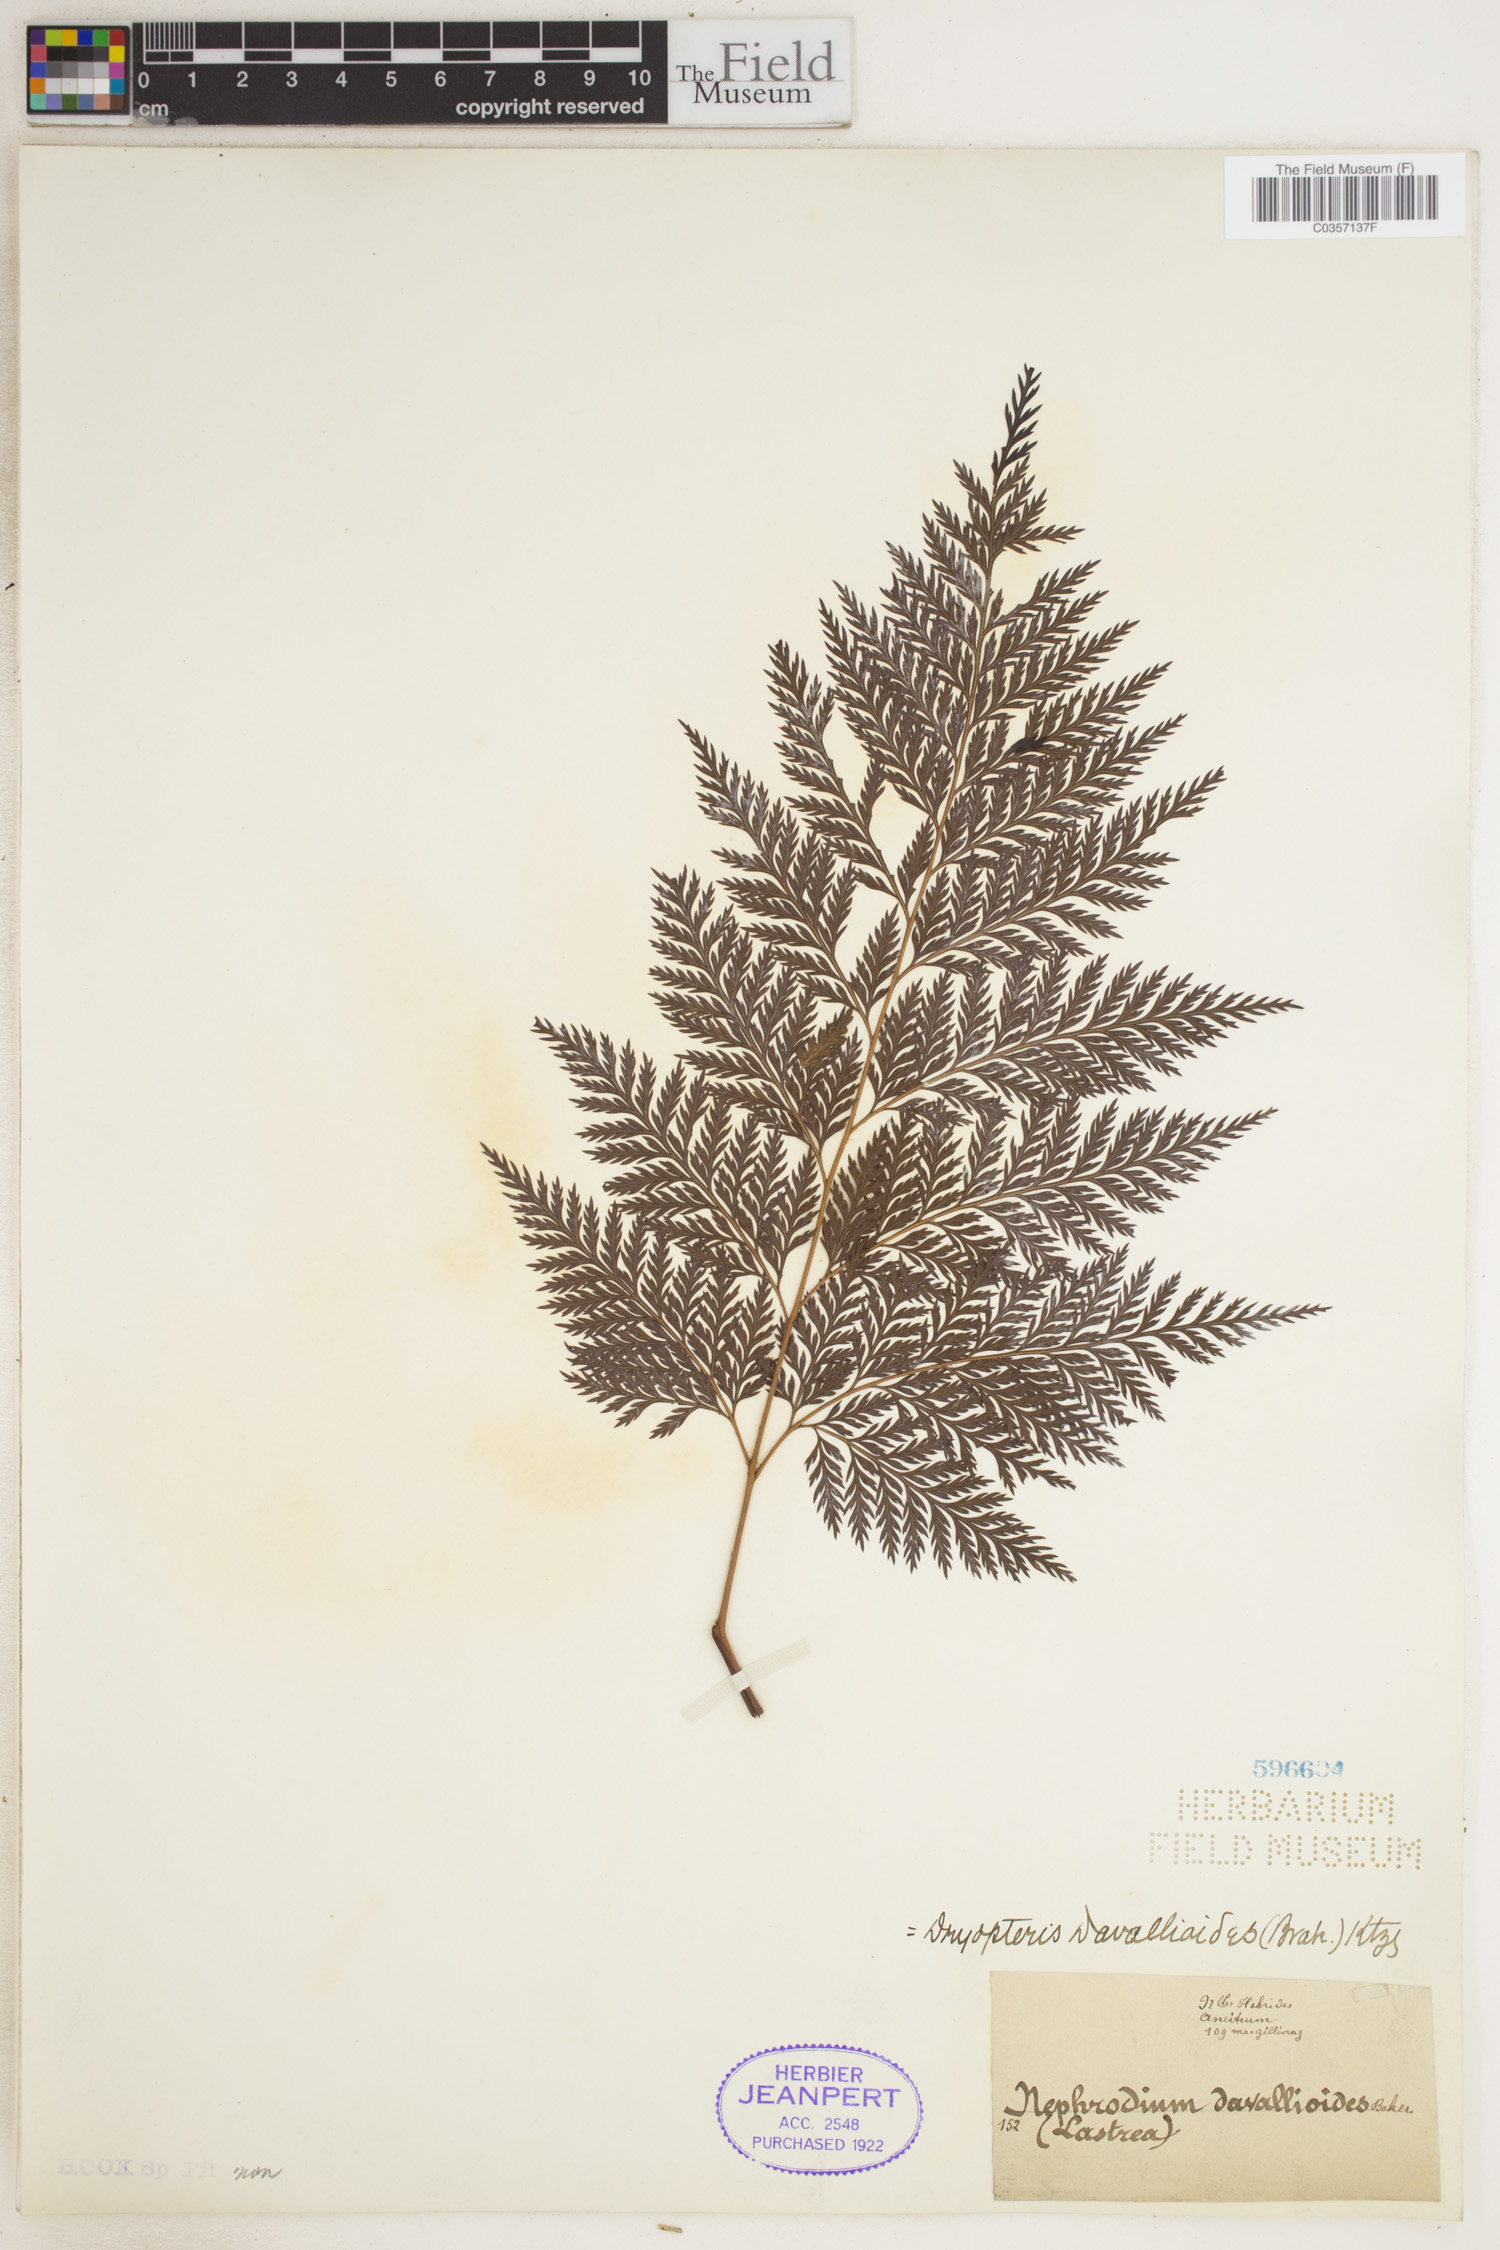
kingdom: Plantae
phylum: Tracheophyta
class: Polypodiopsida
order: Polypodiales
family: Dryopteridaceae
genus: Lastreopsis
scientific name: Lastreopsis davallioides
